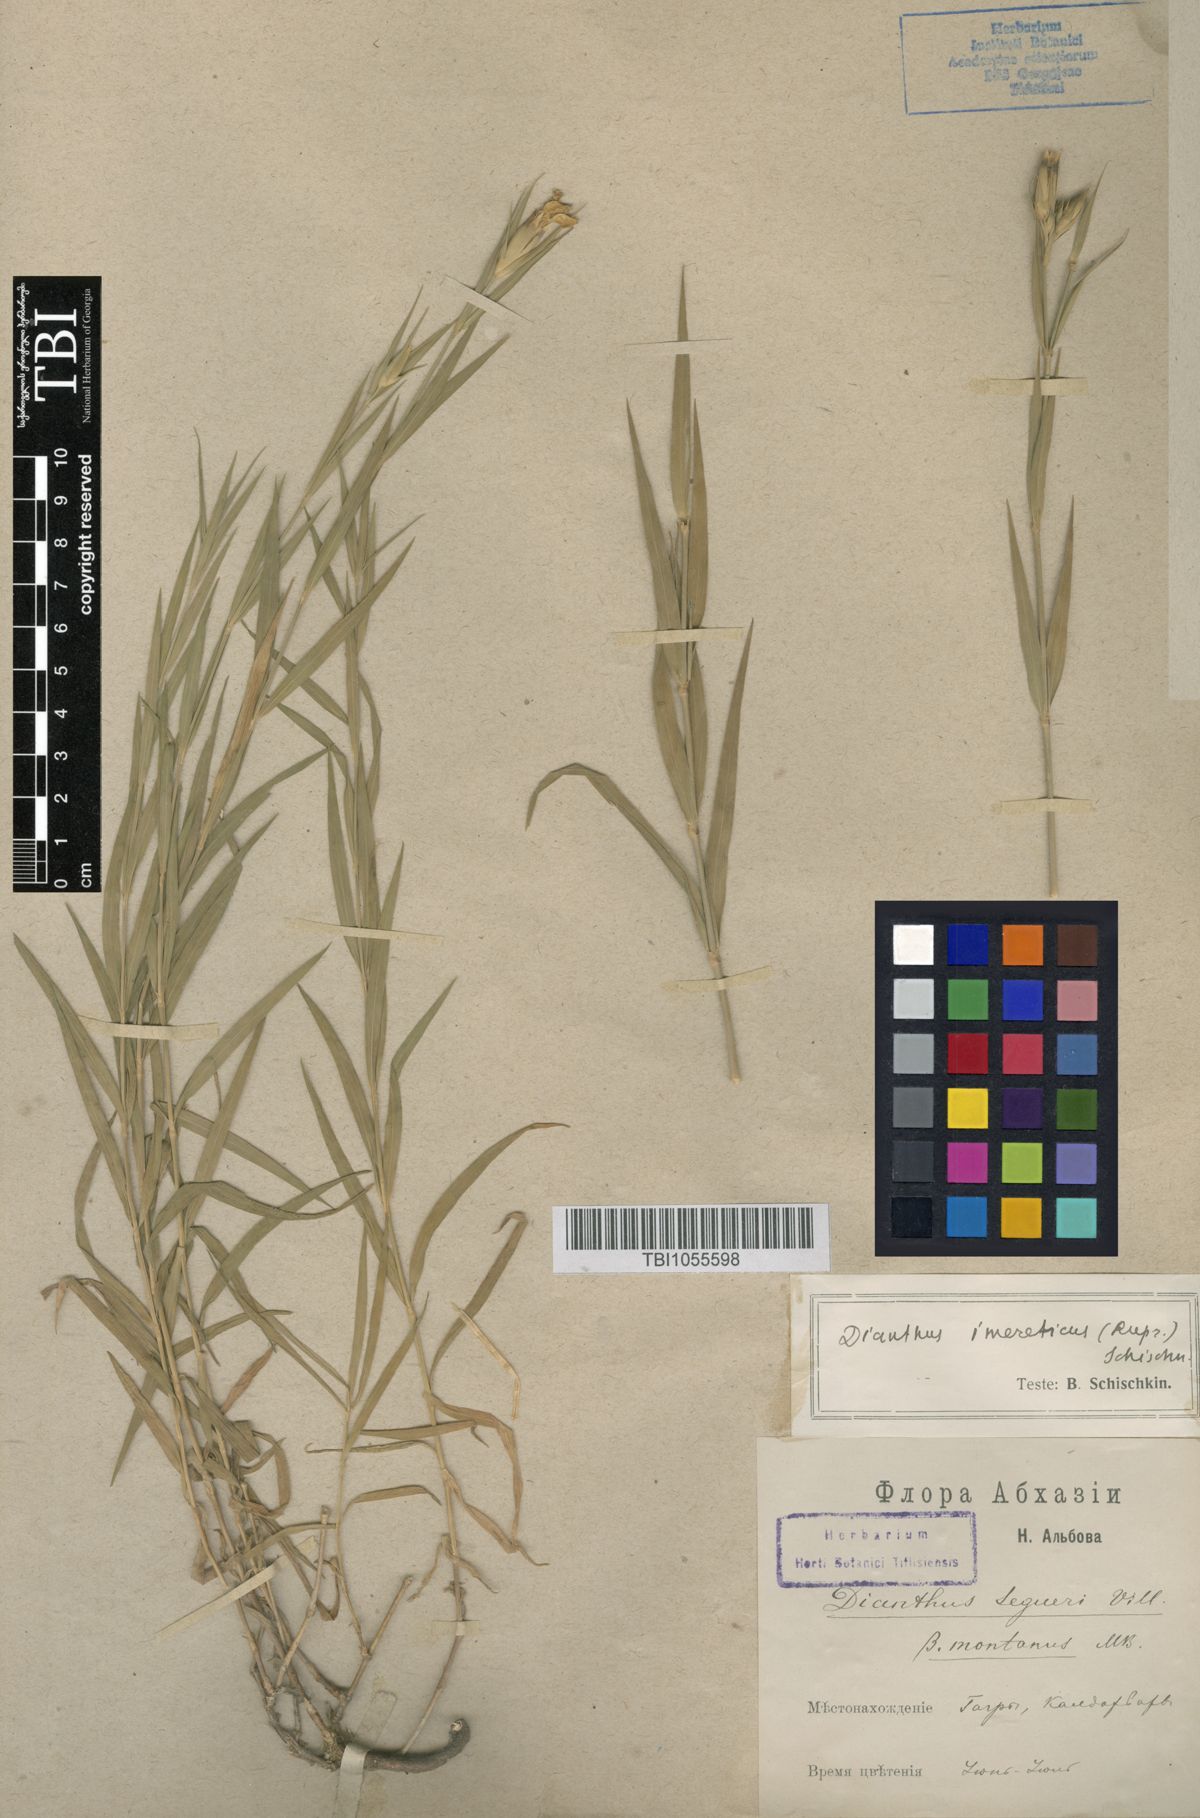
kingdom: Plantae
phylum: Tracheophyta
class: Magnoliopsida
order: Caryophyllales
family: Caryophyllaceae
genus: Dianthus
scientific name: Dianthus imereticus
